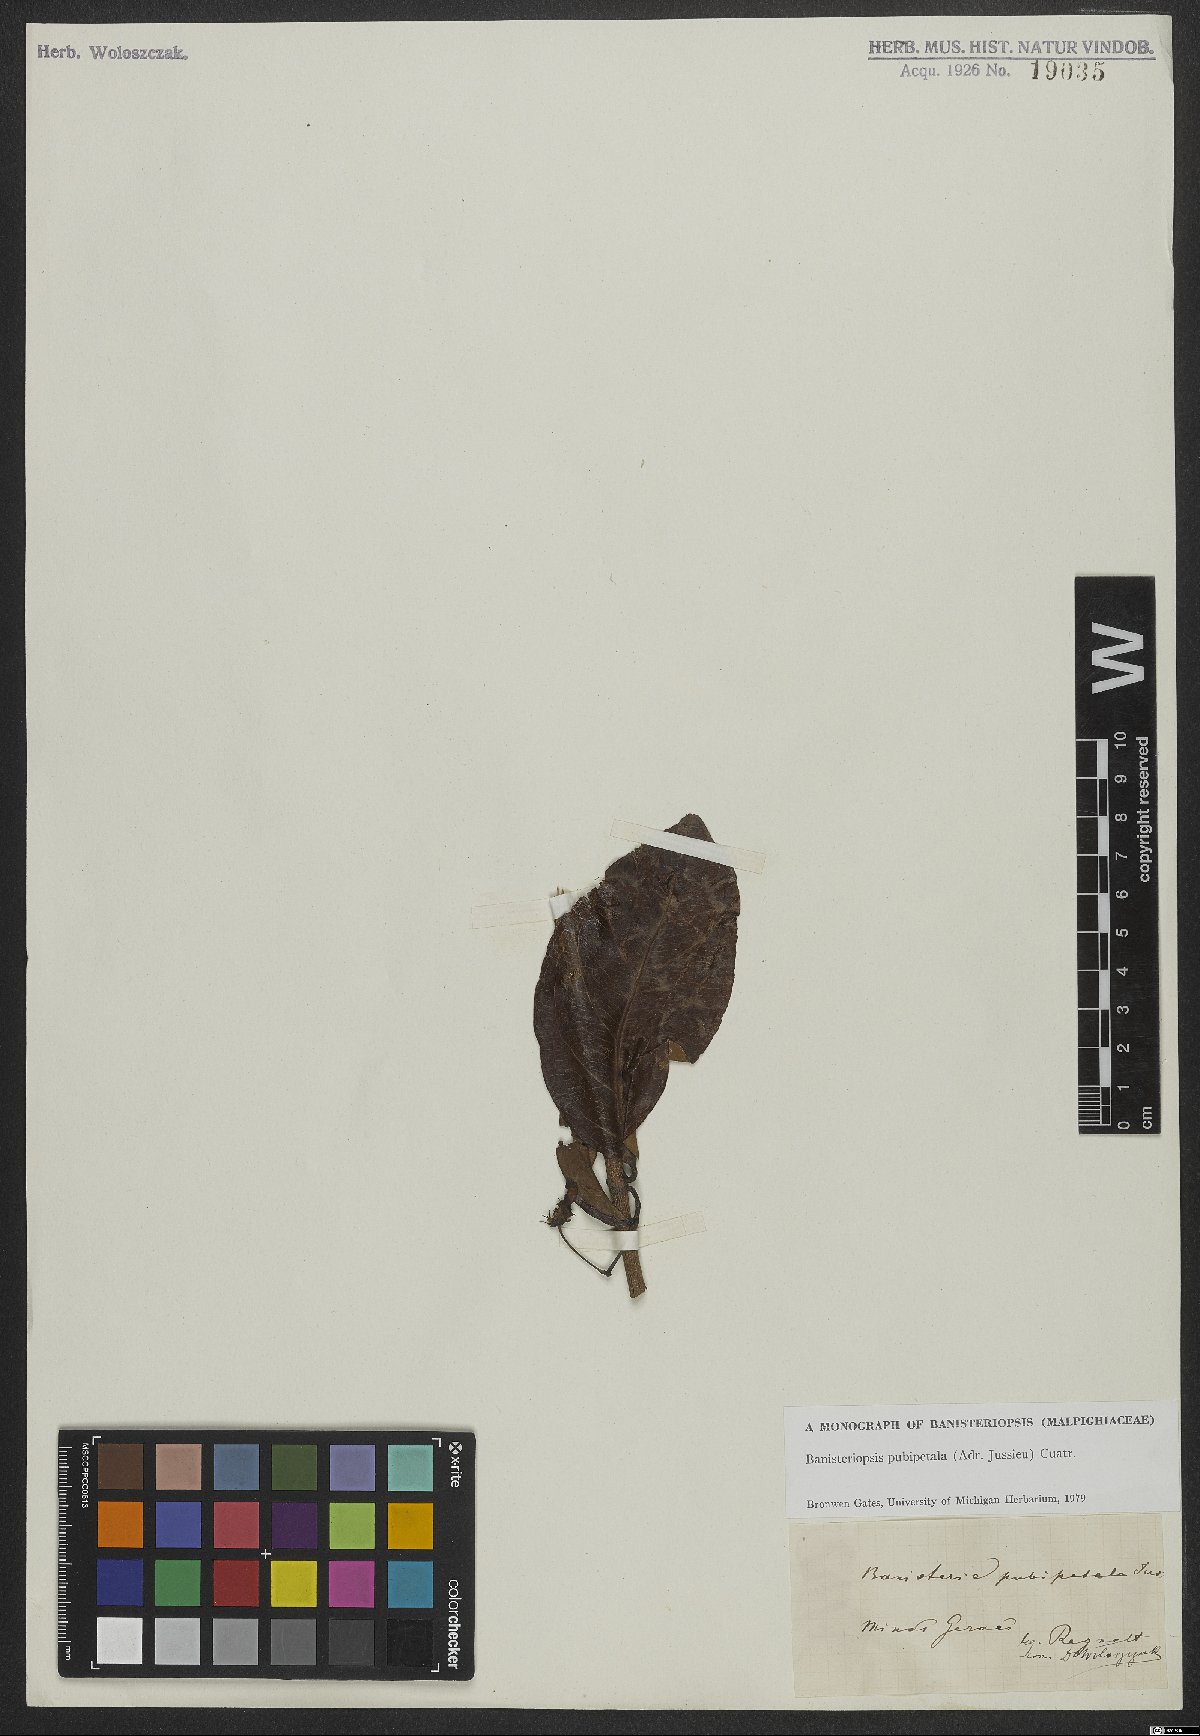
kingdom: Plantae
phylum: Tracheophyta
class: Magnoliopsida
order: Malpighiales
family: Malpighiaceae
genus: Diplopterys
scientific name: Diplopterys pubipetala
